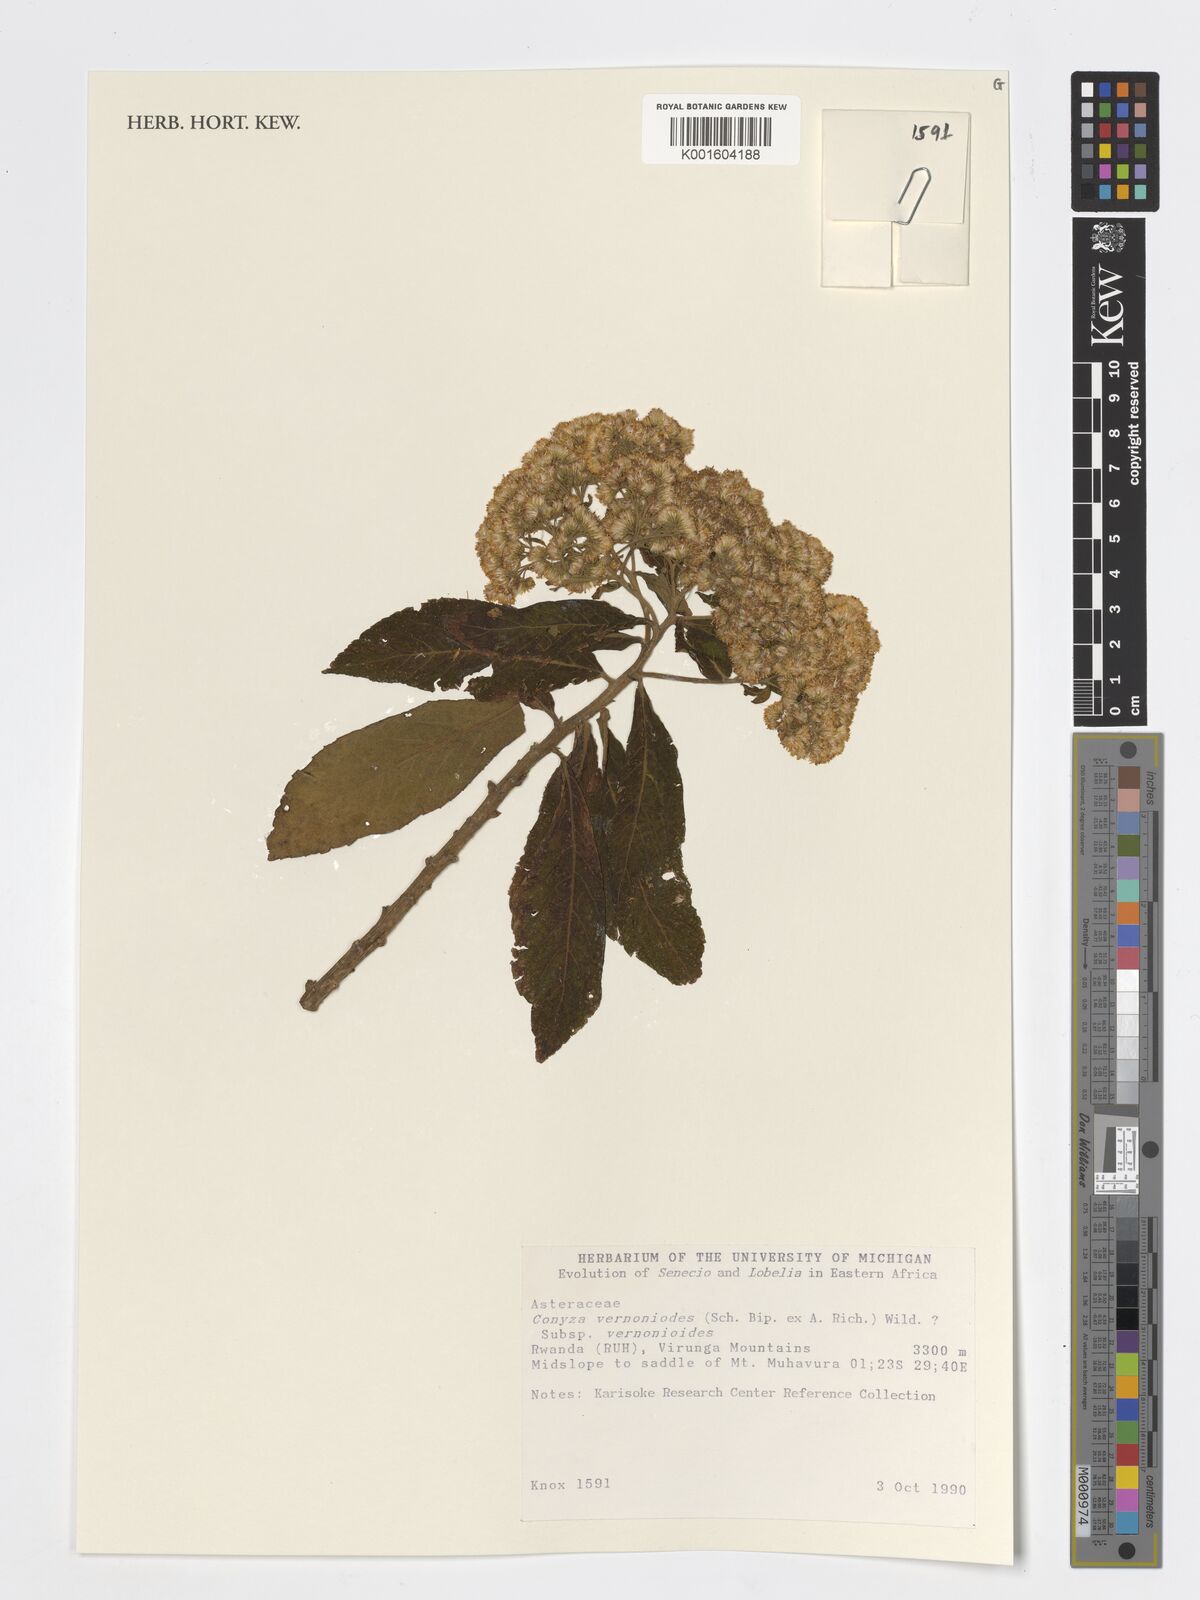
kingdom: Plantae
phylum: Tracheophyta
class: Magnoliopsida
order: Asterales
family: Asteraceae
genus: Nidorella
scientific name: Nidorella vernonioides
